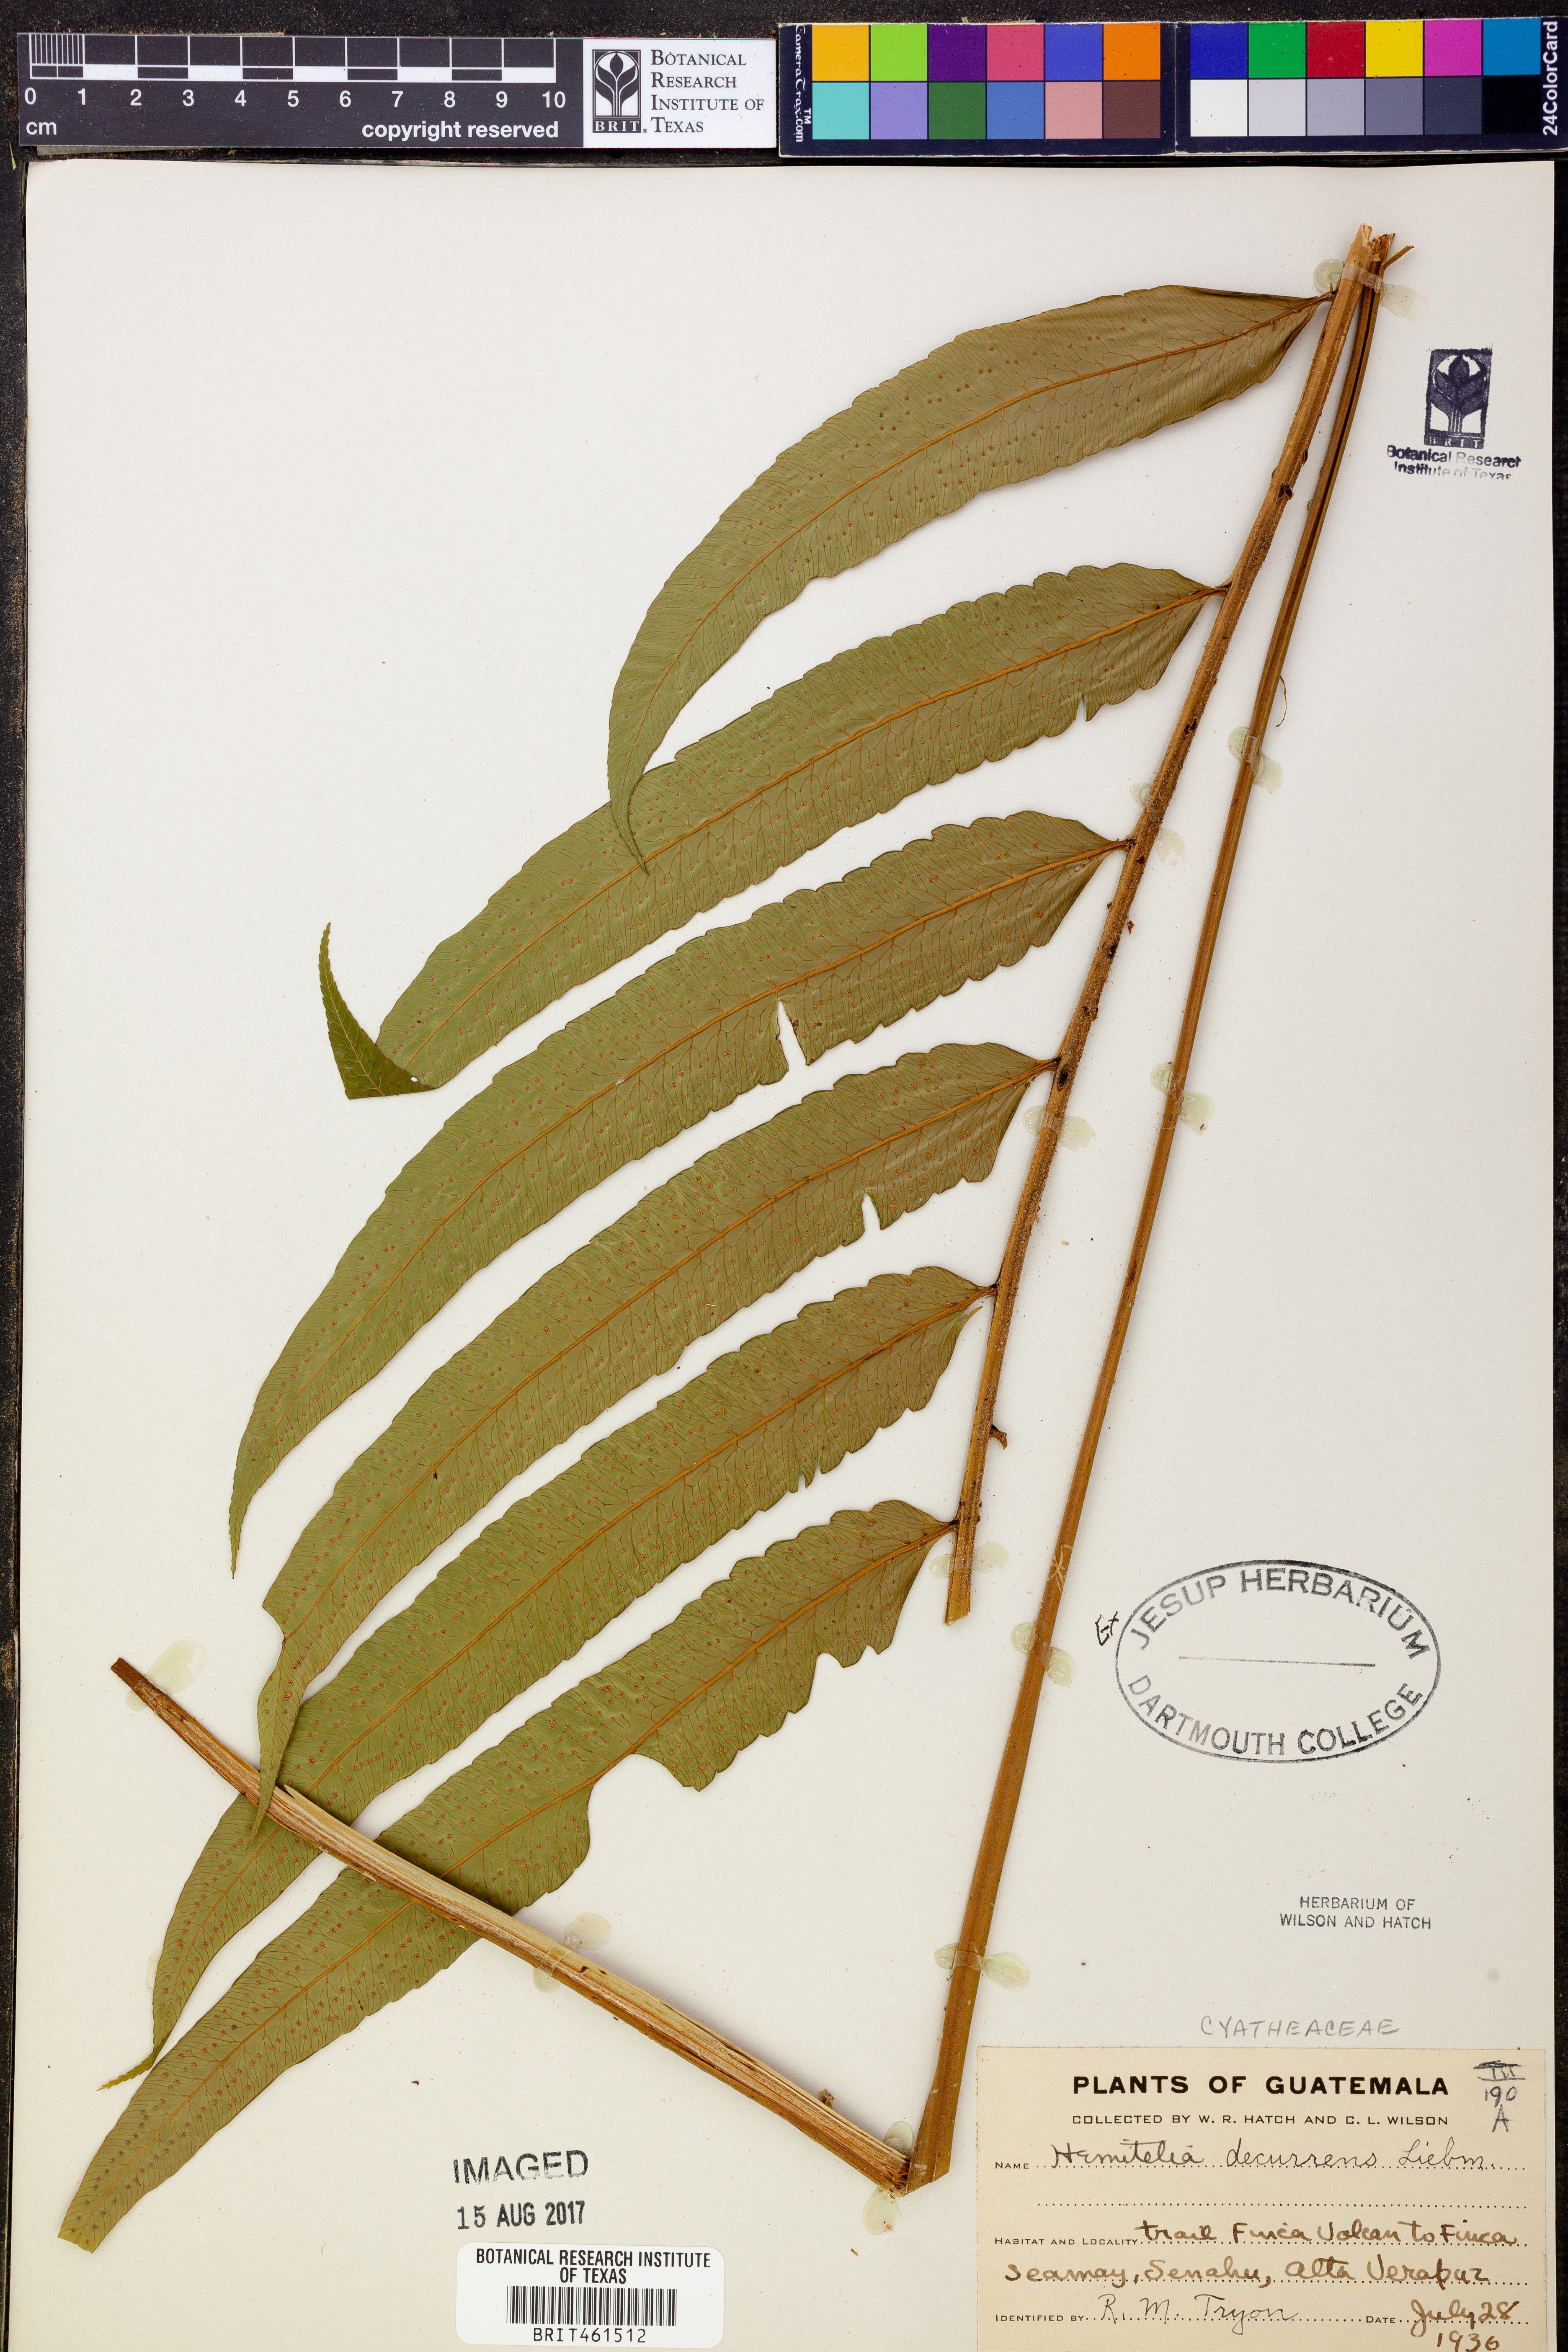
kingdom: Plantae
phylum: Tracheophyta
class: Polypodiopsida
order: Cyatheales
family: Cyatheaceae
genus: Cyathea
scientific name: Cyathea liebmannii
